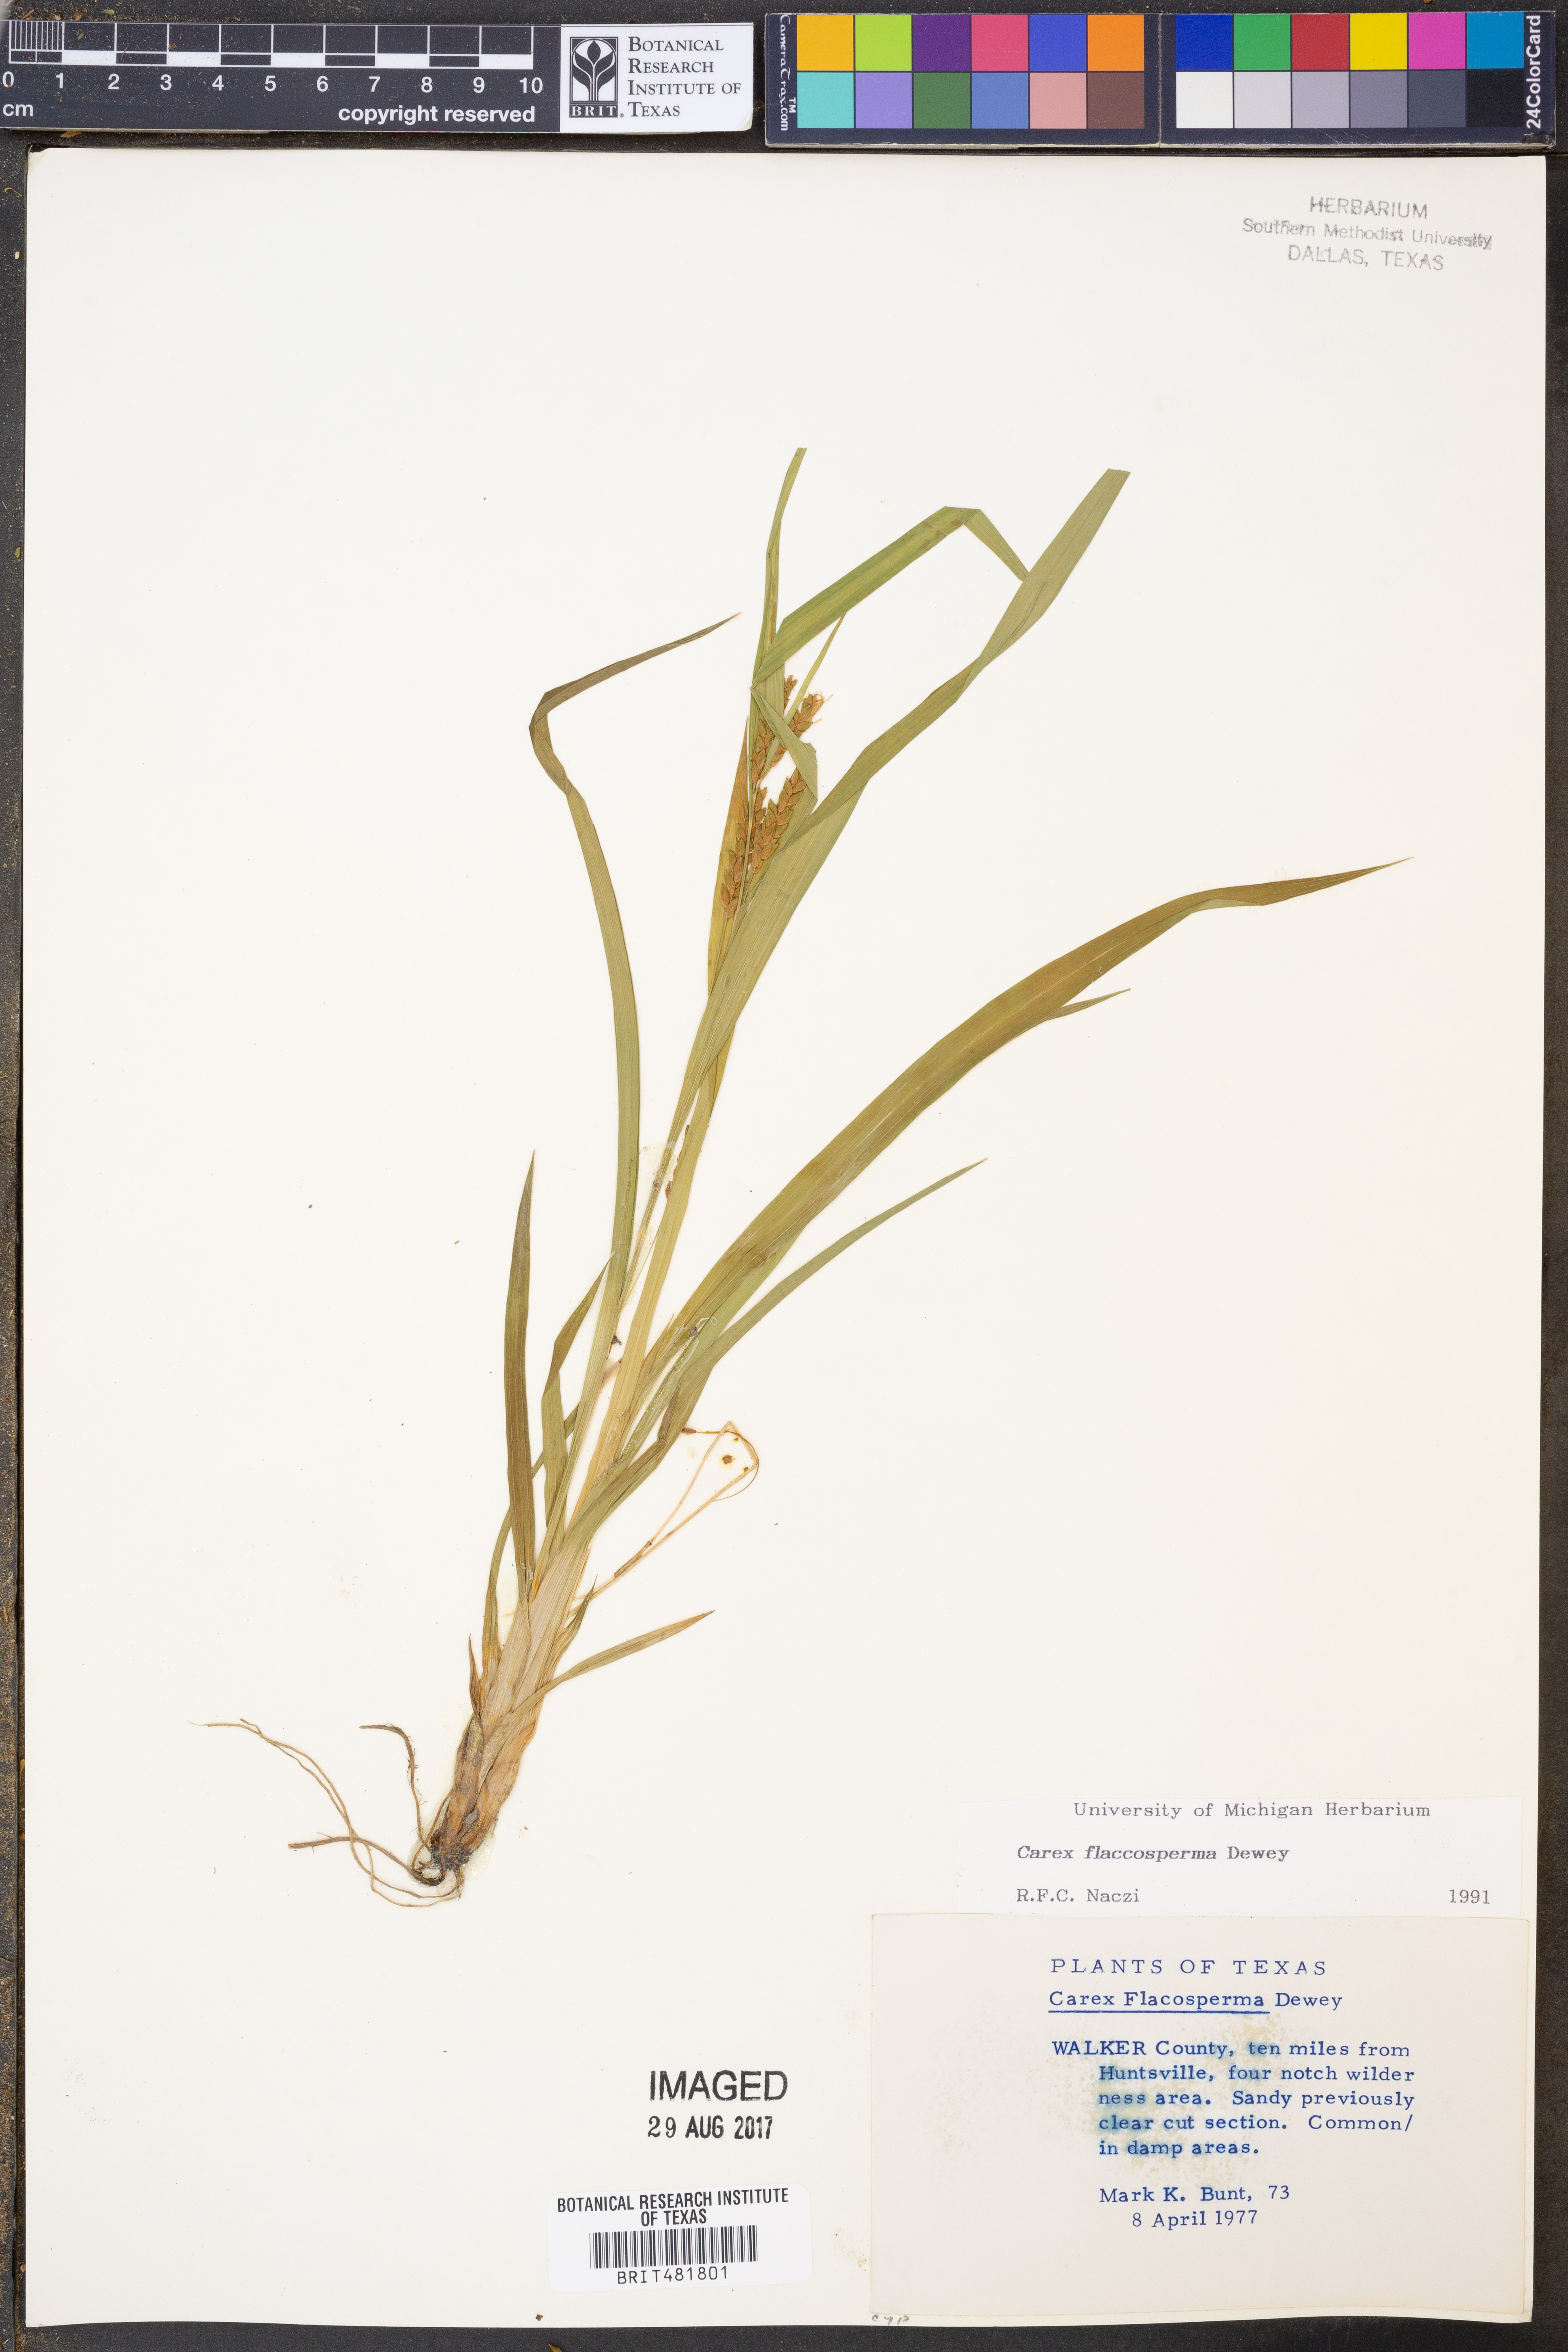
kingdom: Plantae
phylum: Tracheophyta
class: Liliopsida
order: Poales
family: Cyperaceae
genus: Carex
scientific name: Carex flaccosperma
